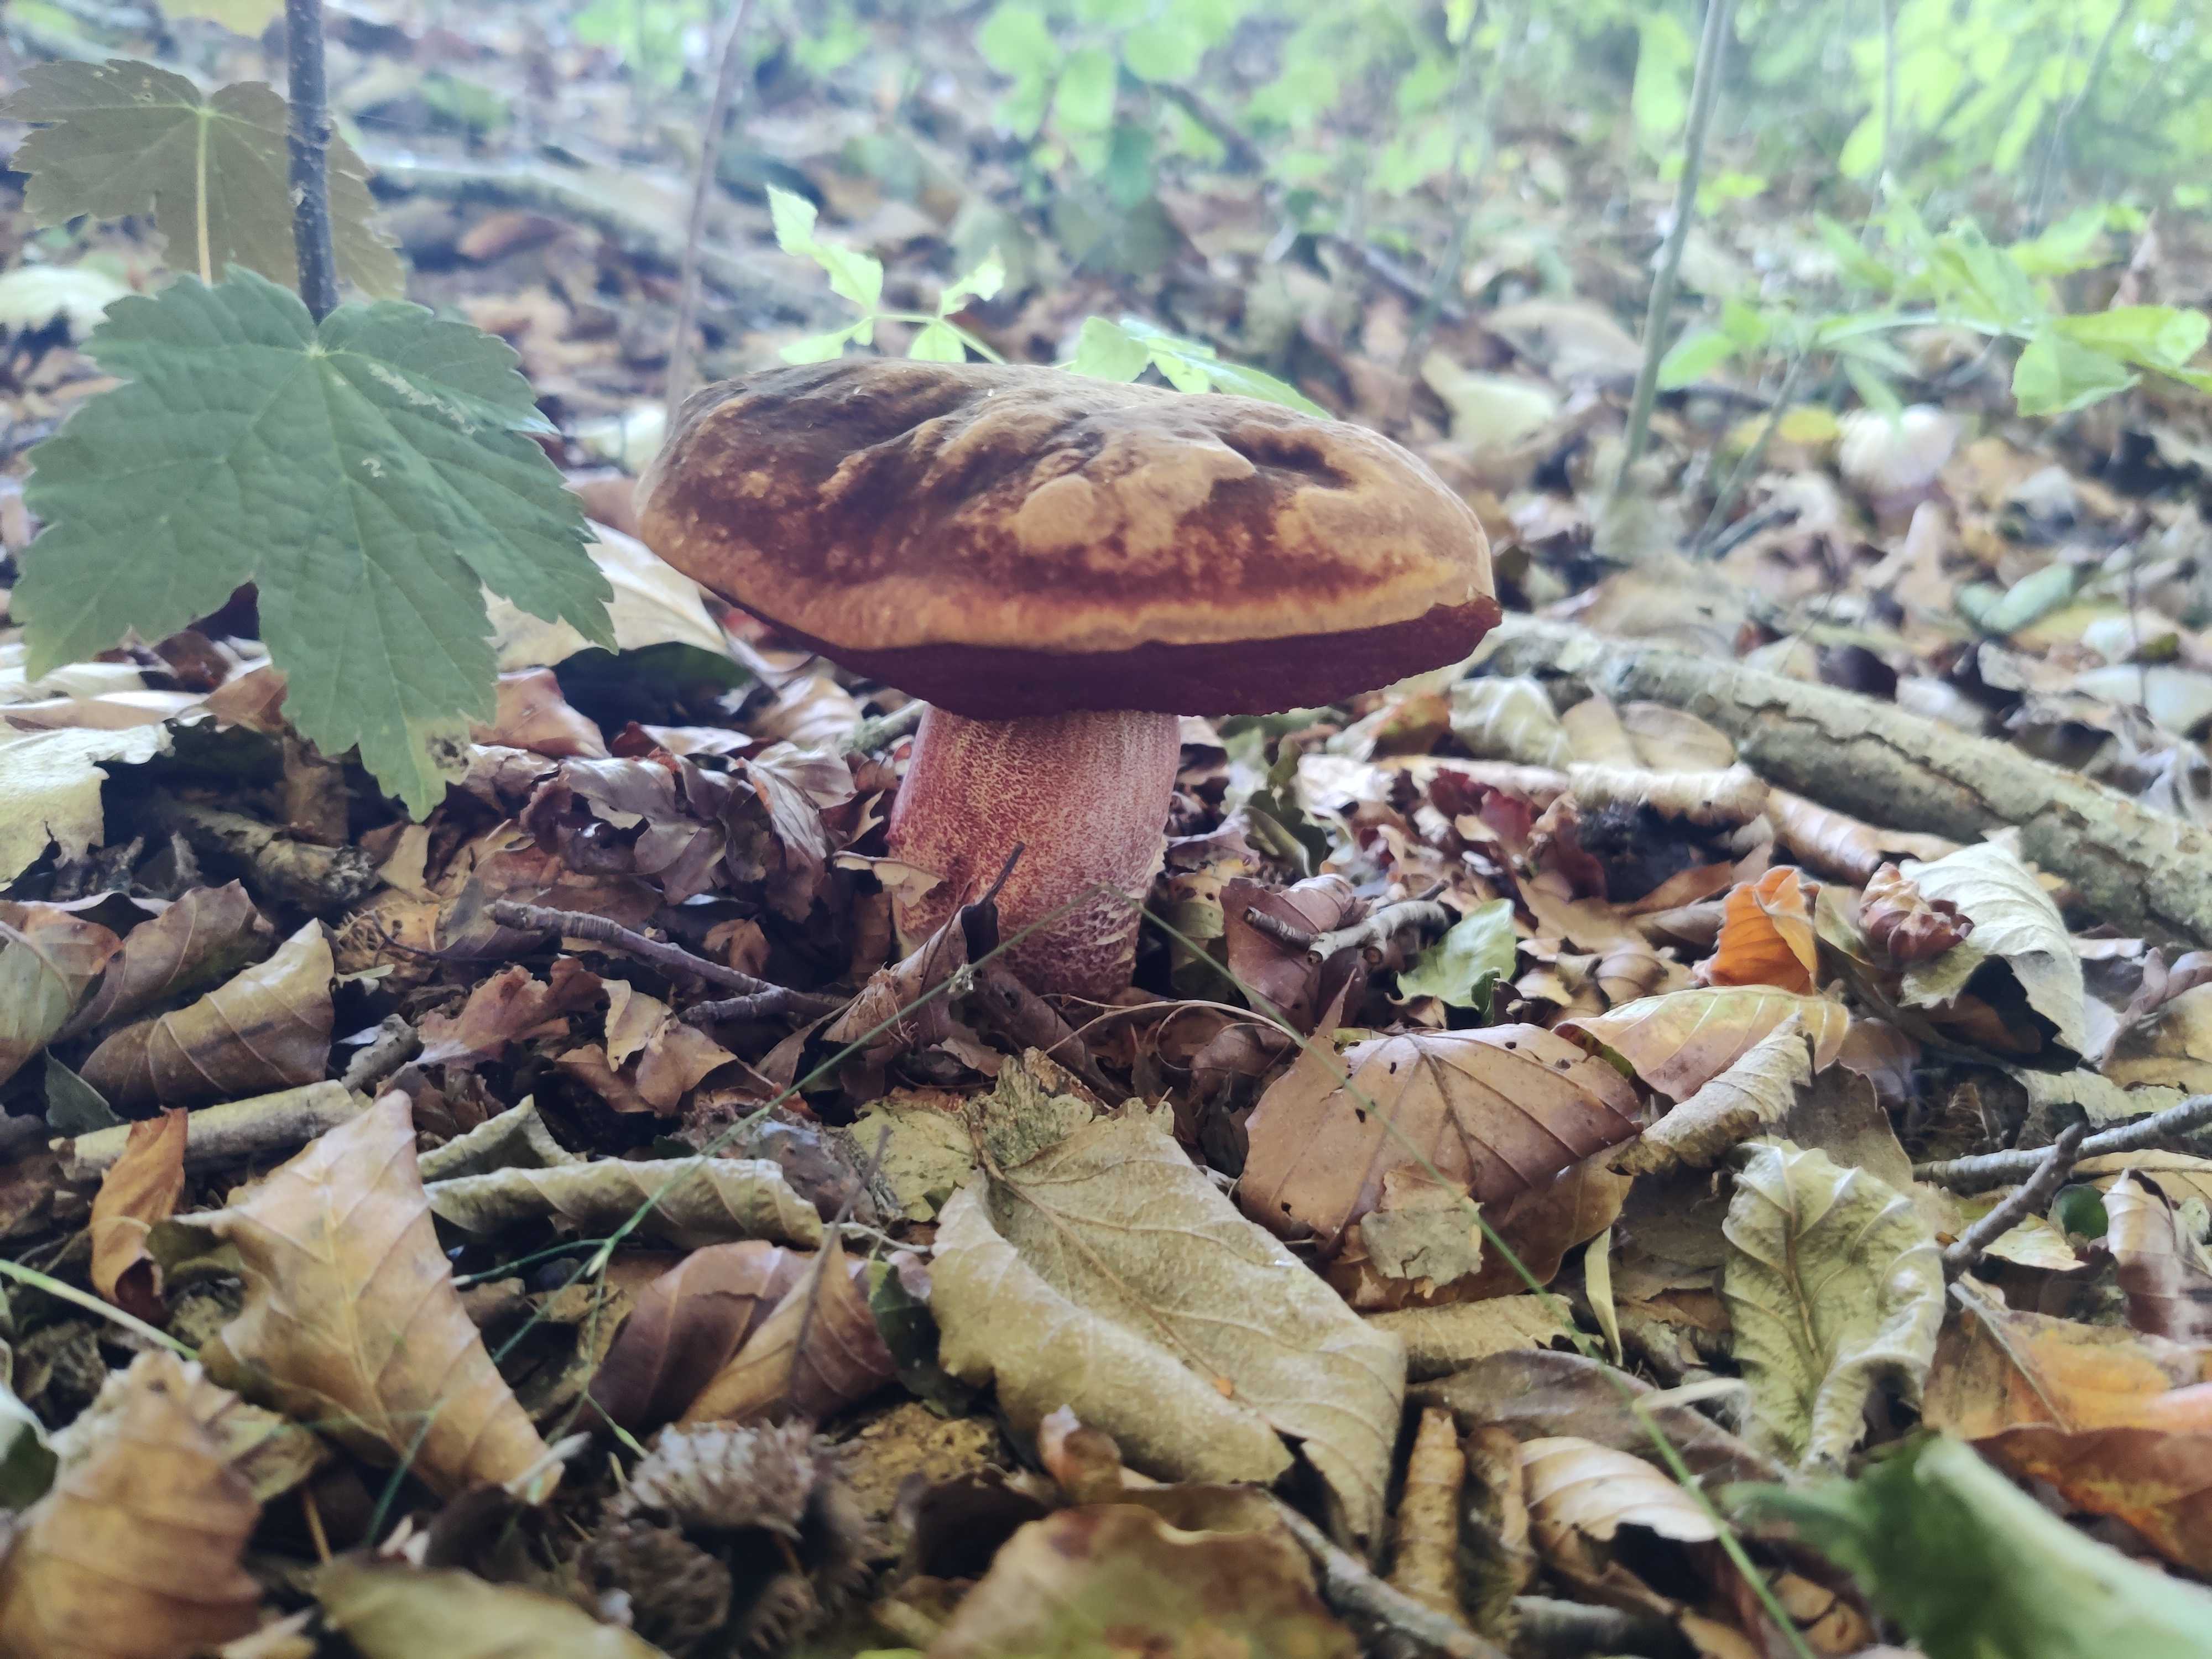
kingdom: Fungi
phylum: Basidiomycota
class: Agaricomycetes
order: Boletales
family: Boletaceae
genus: Neoboletus
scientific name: Neoboletus erythropus
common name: punktstokket indigorørhat
